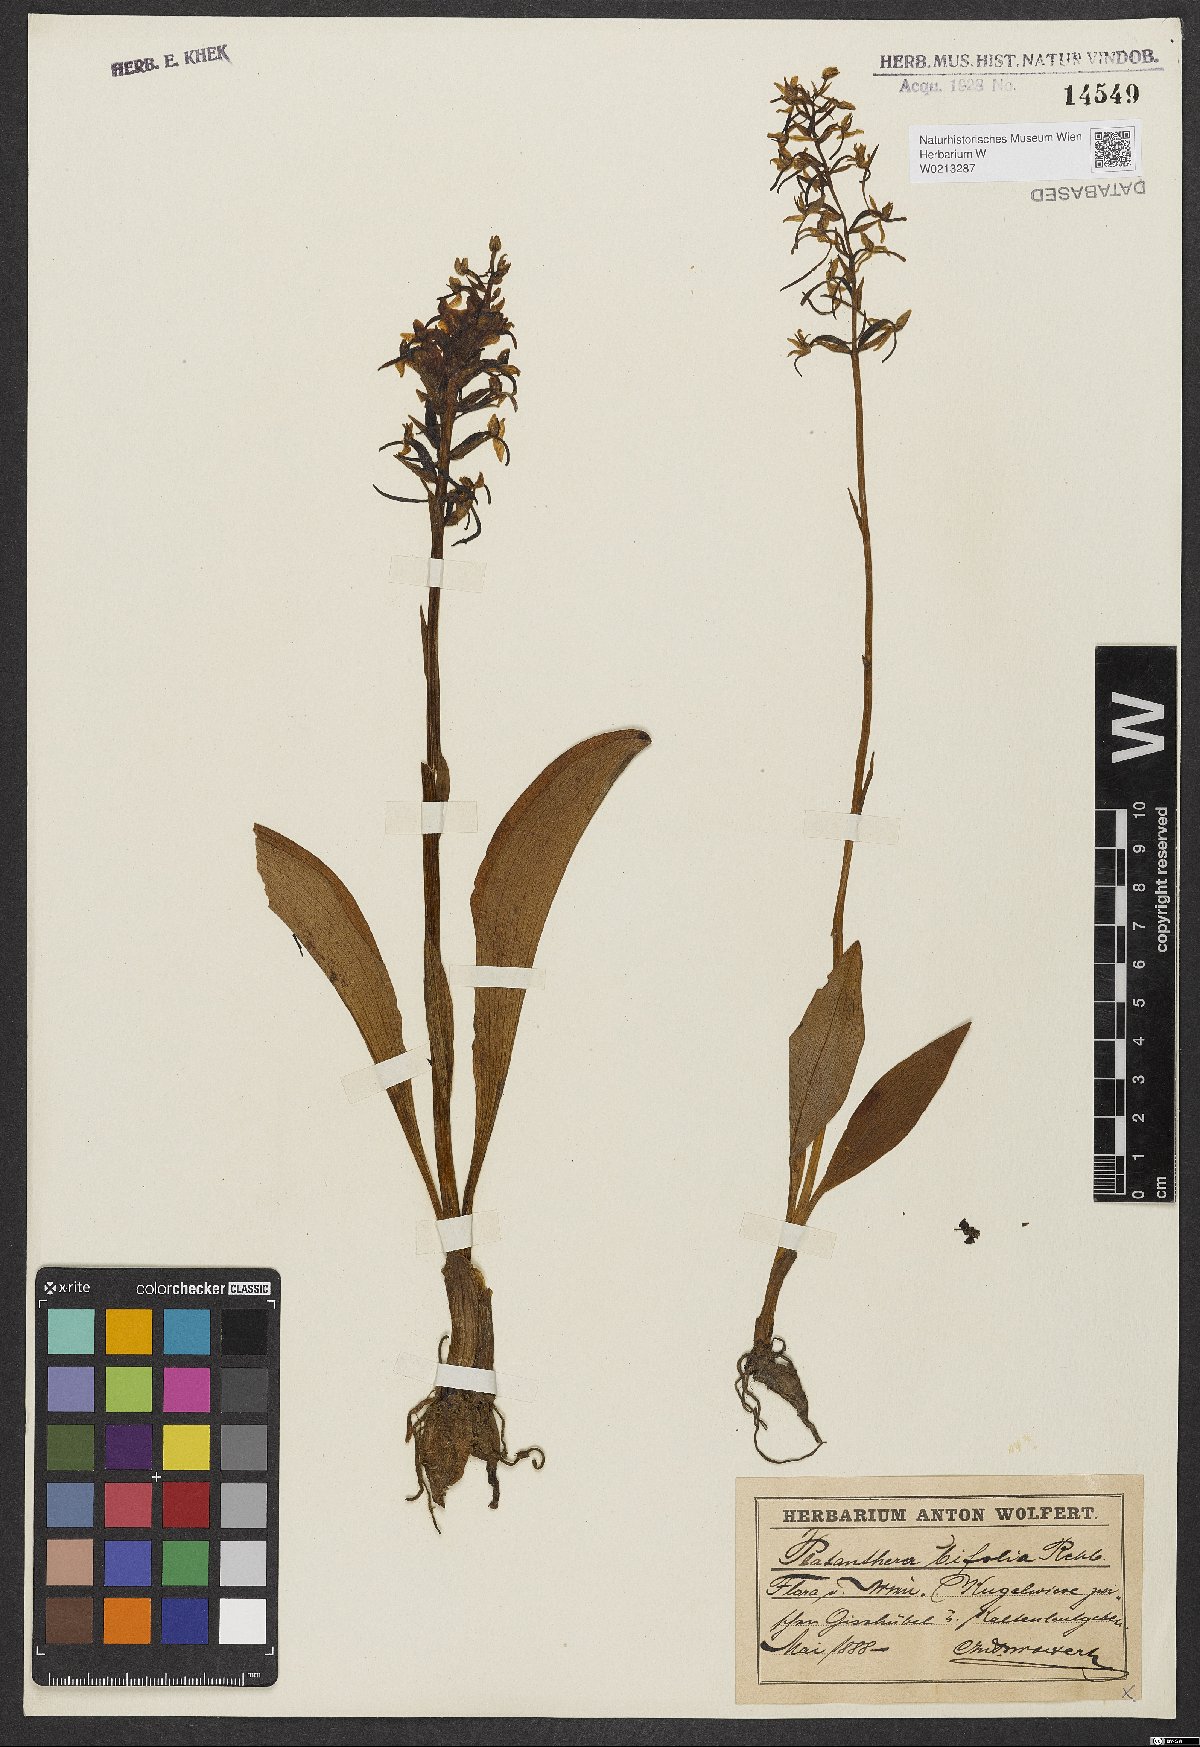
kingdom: Plantae
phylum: Tracheophyta
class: Liliopsida
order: Asparagales
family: Orchidaceae
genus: Platanthera
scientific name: Platanthera bifolia
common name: Lesser butterfly-orchid
